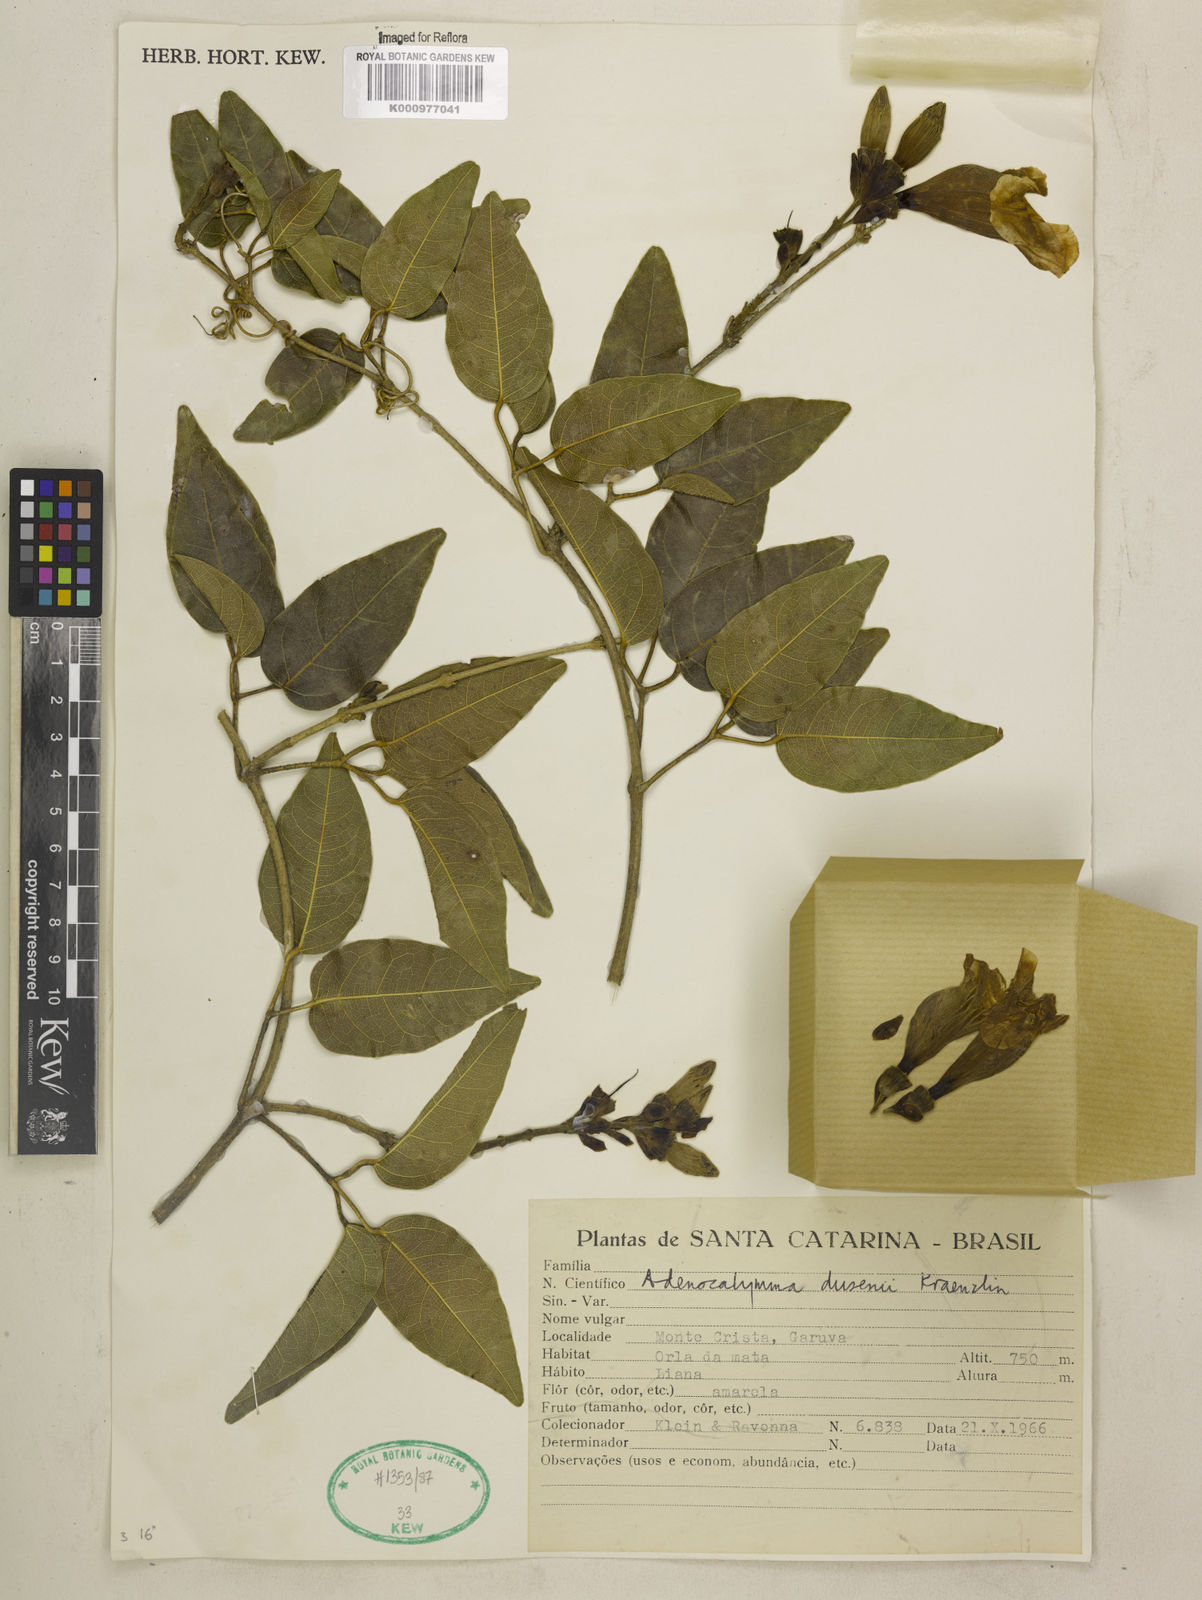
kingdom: Plantae
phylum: Tracheophyta
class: Magnoliopsida
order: Lamiales
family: Bignoniaceae
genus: Adenocalymma
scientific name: Adenocalymma dusenii
